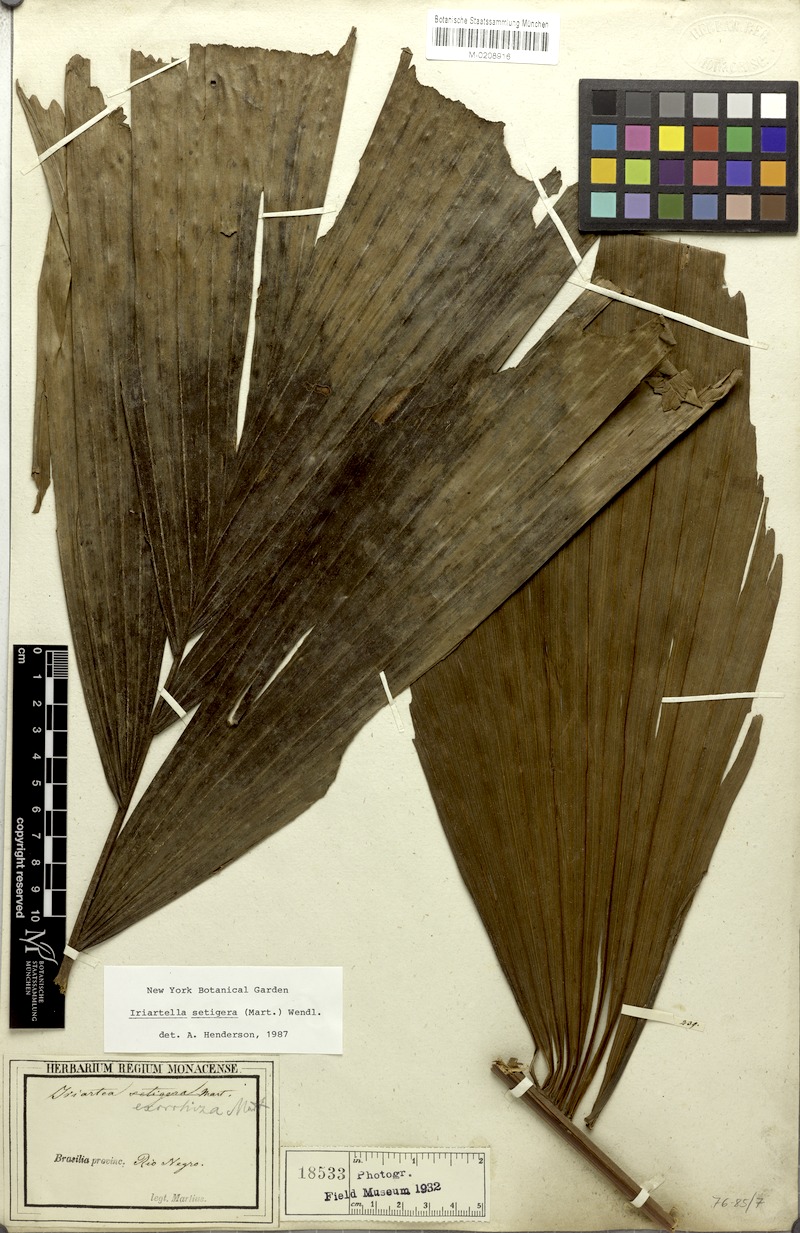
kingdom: Plantae
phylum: Tracheophyta
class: Liliopsida
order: Arecales
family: Arecaceae
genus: Iriartella
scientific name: Iriartella setigera
